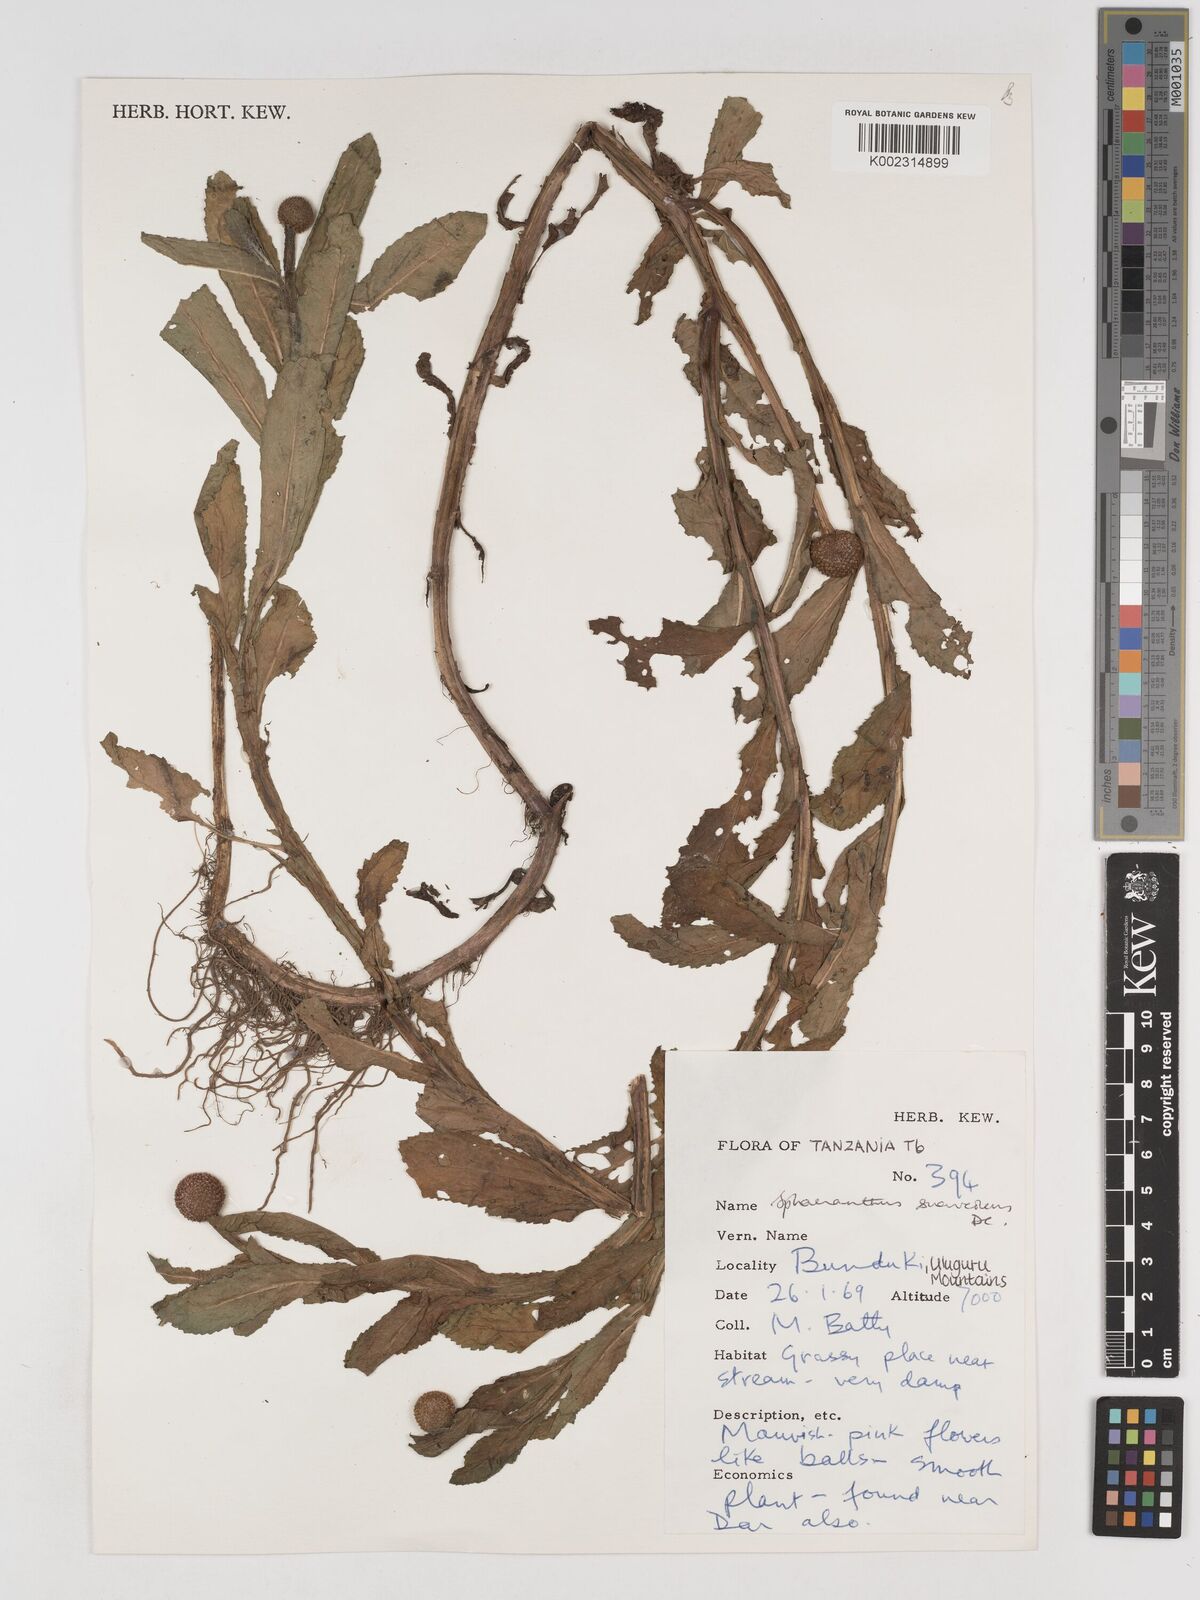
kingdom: Plantae
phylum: Tracheophyta
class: Magnoliopsida
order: Asterales
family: Asteraceae
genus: Sphaeranthus
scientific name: Sphaeranthus suaveolens
